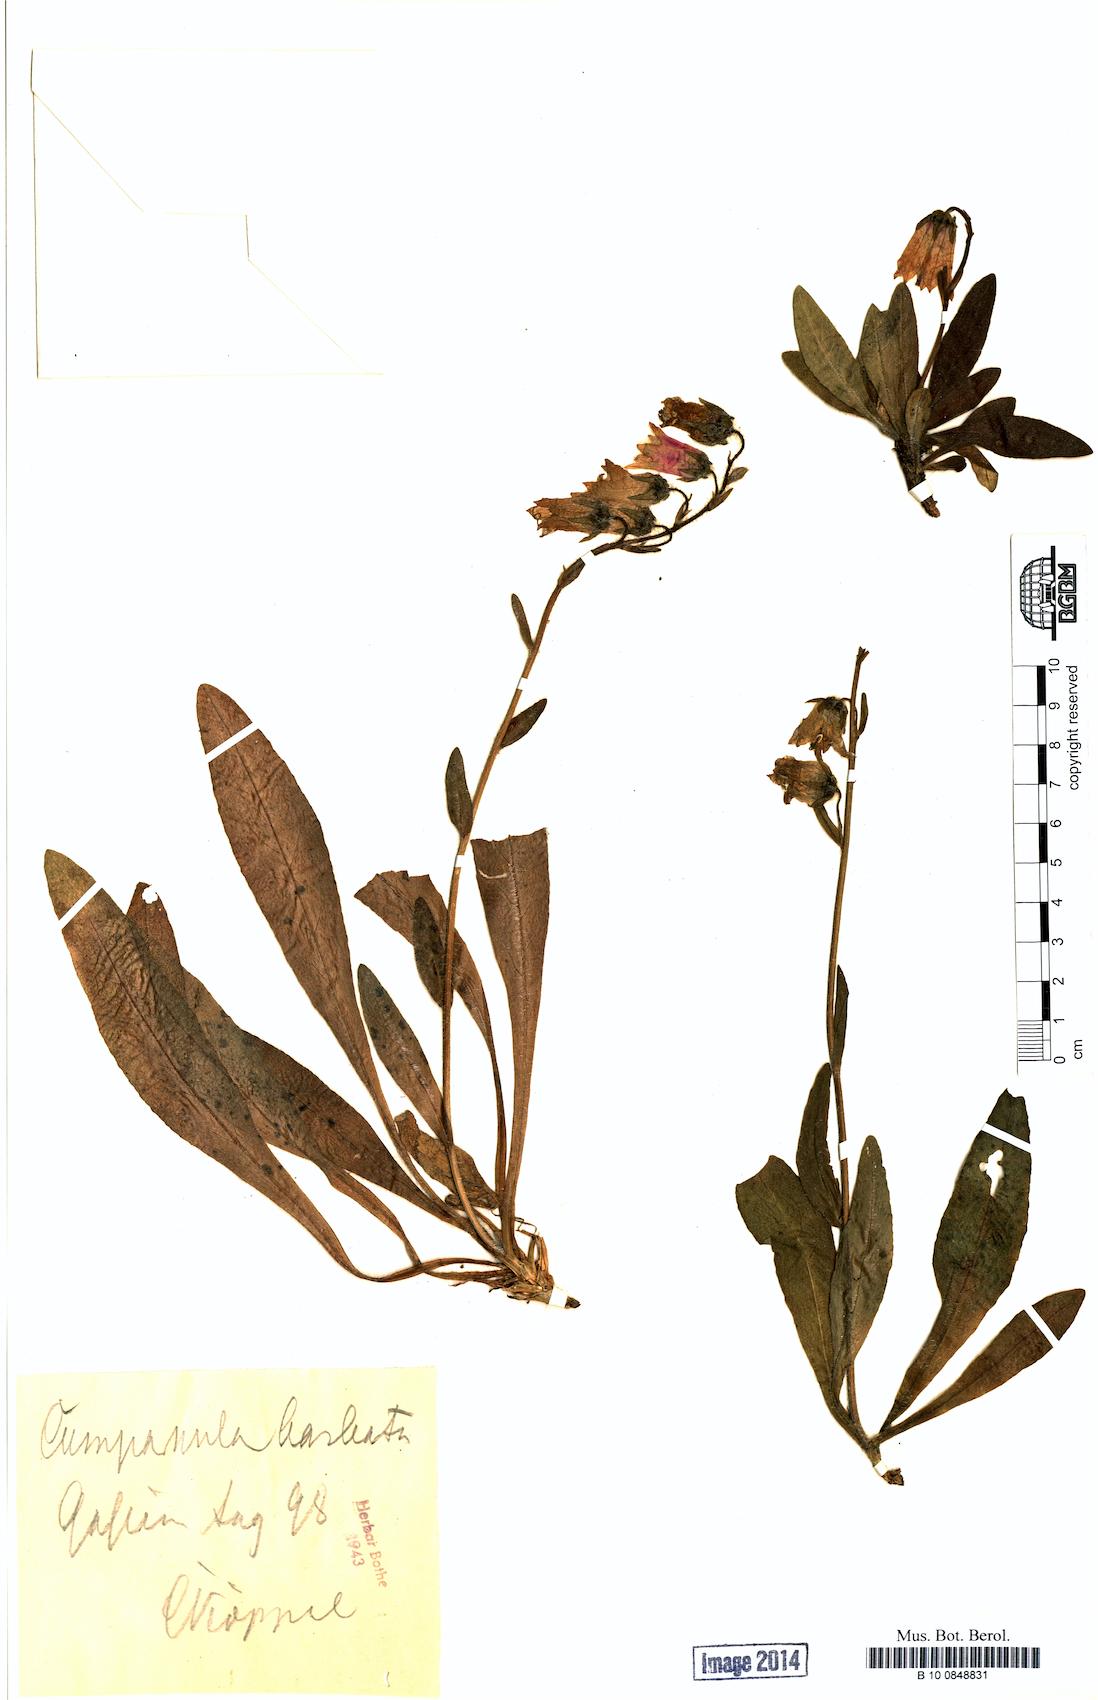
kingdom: Plantae
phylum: Tracheophyta
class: Magnoliopsida
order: Asterales
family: Campanulaceae
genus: Campanula
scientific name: Campanula barbata
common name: Bearded bellflower
